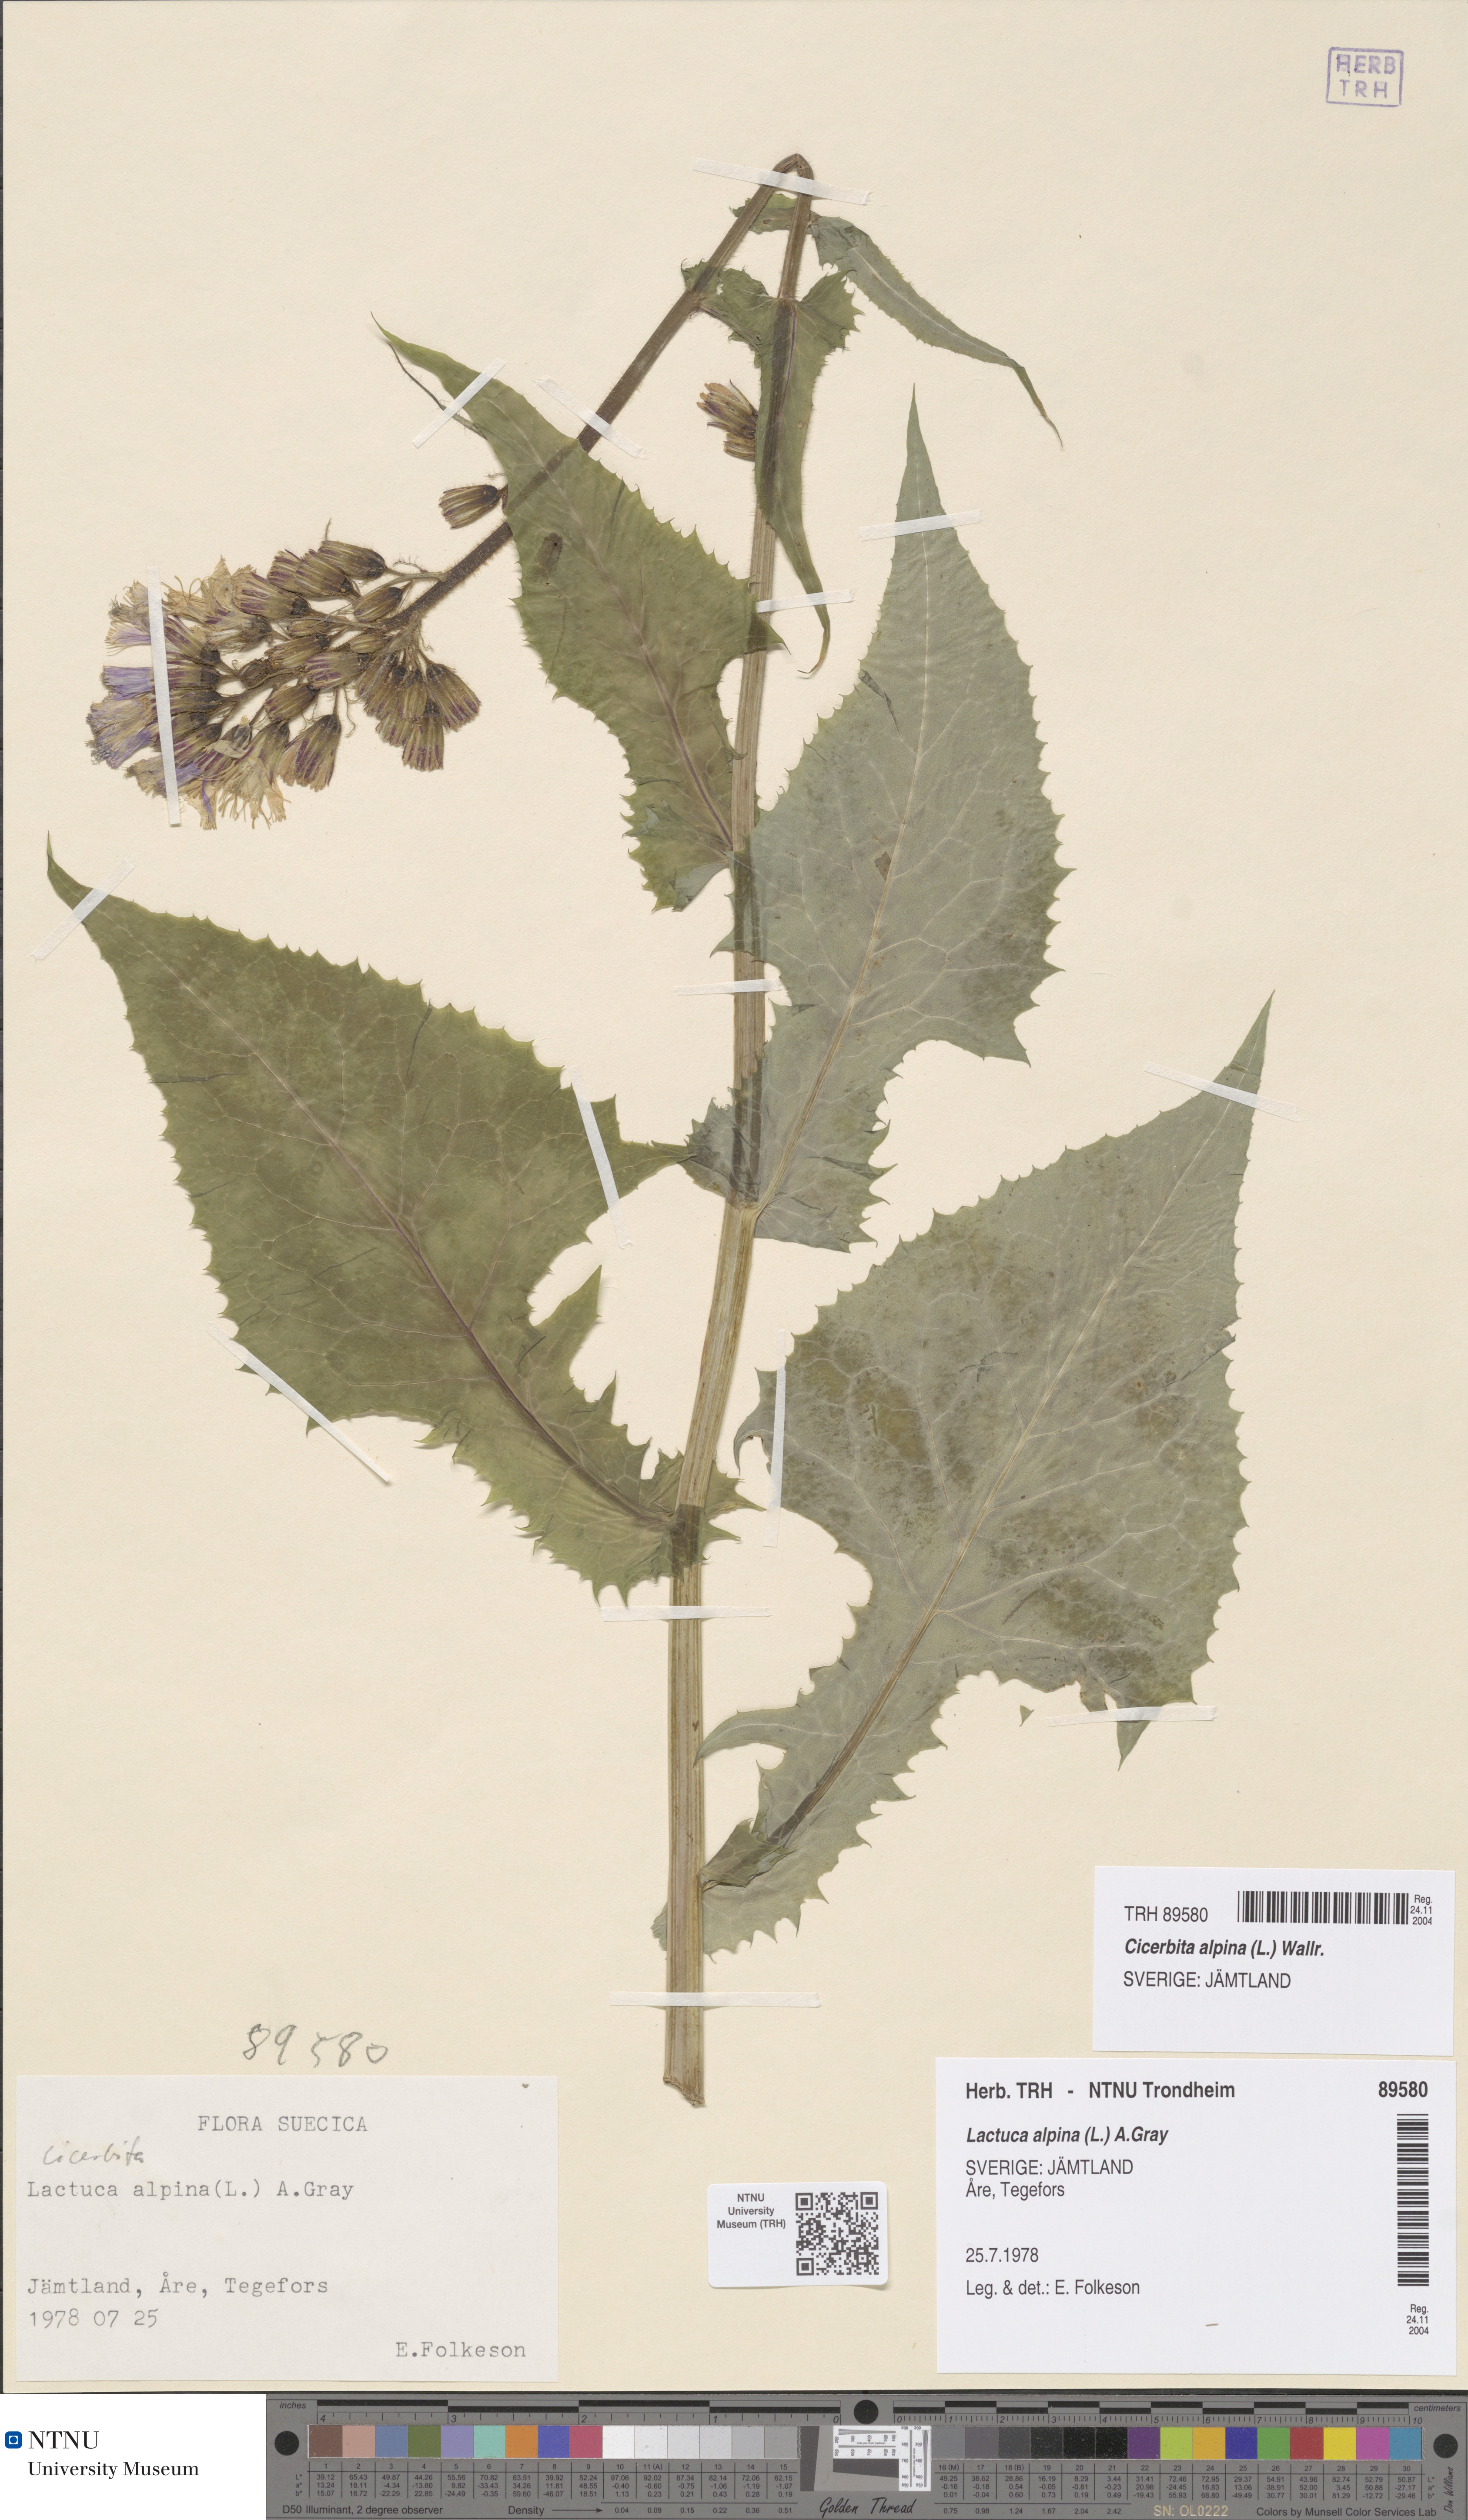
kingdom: Plantae
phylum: Tracheophyta
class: Magnoliopsida
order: Asterales
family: Asteraceae
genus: Cicerbita
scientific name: Cicerbita alpina
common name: Alpine blue-sow-thistle
